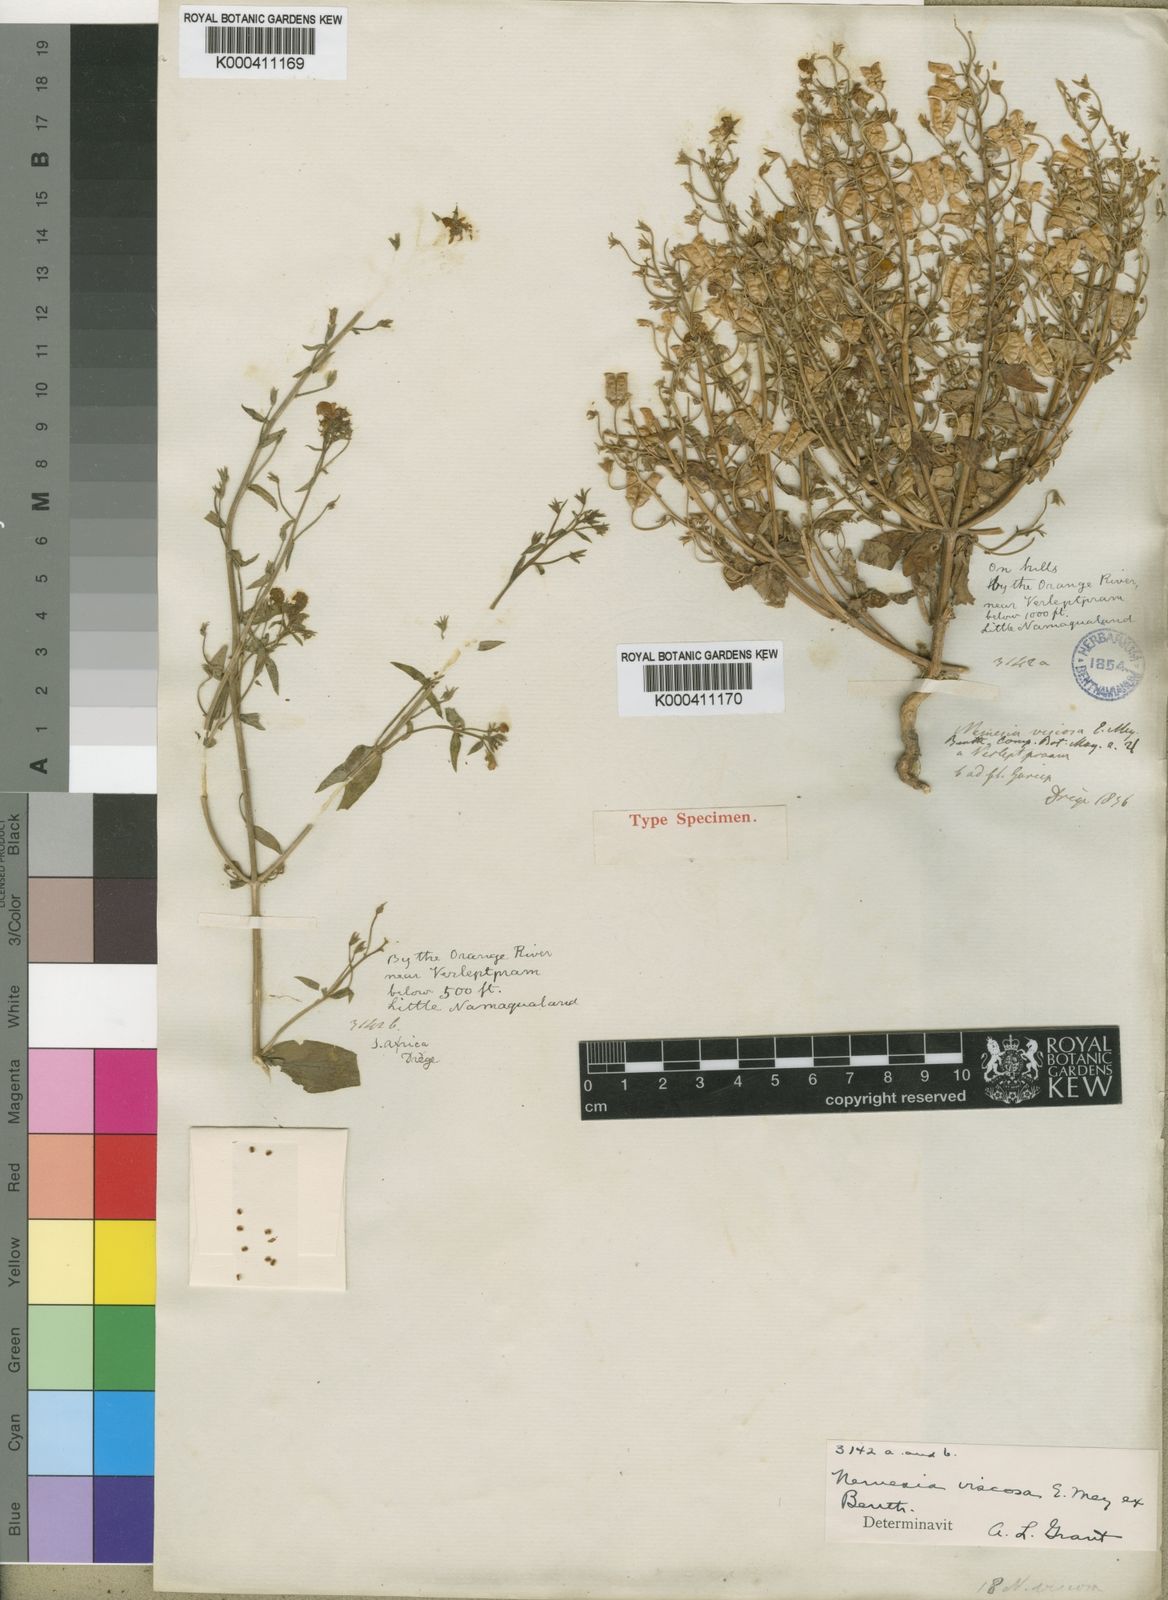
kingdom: Plantae
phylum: Tracheophyta
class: Magnoliopsida
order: Lamiales
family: Scrophulariaceae
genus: Nemesia
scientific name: Nemesia parviflora
